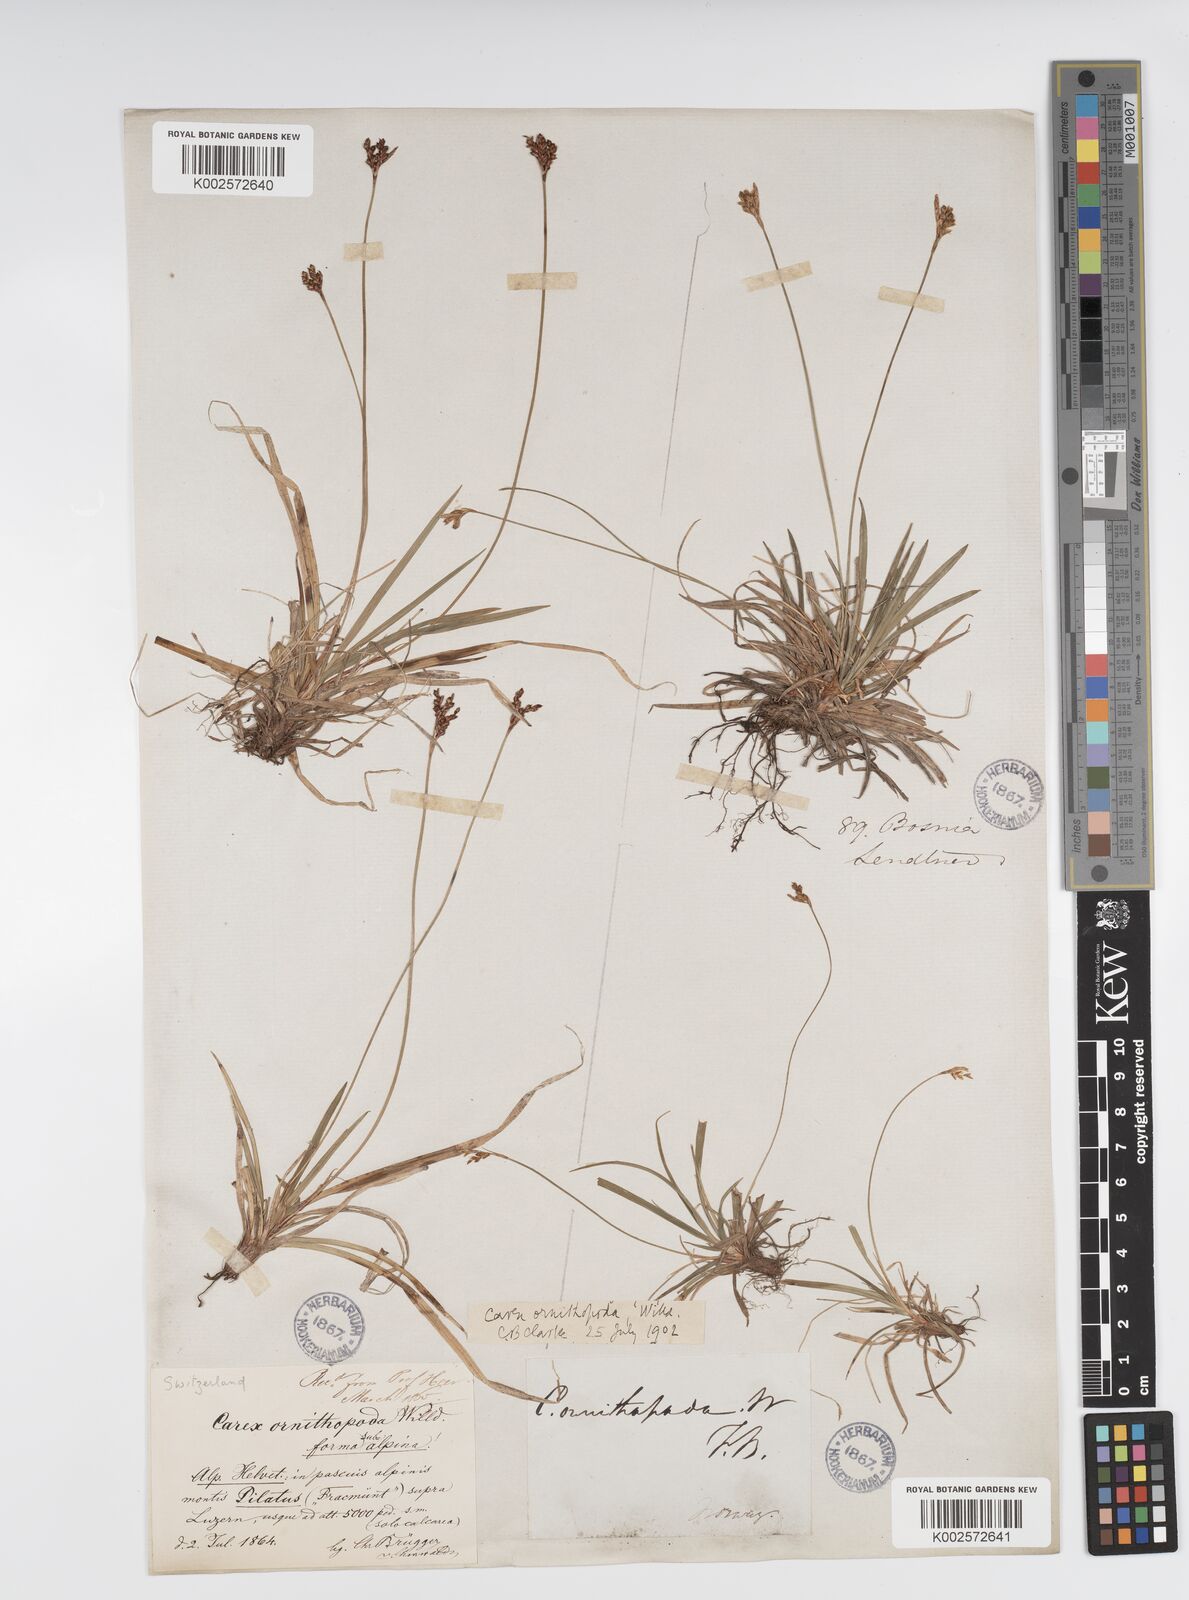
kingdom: Plantae
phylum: Tracheophyta
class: Liliopsida
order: Poales
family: Cyperaceae
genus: Carex
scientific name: Carex ornithopoda
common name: Bird's-foot sedge
